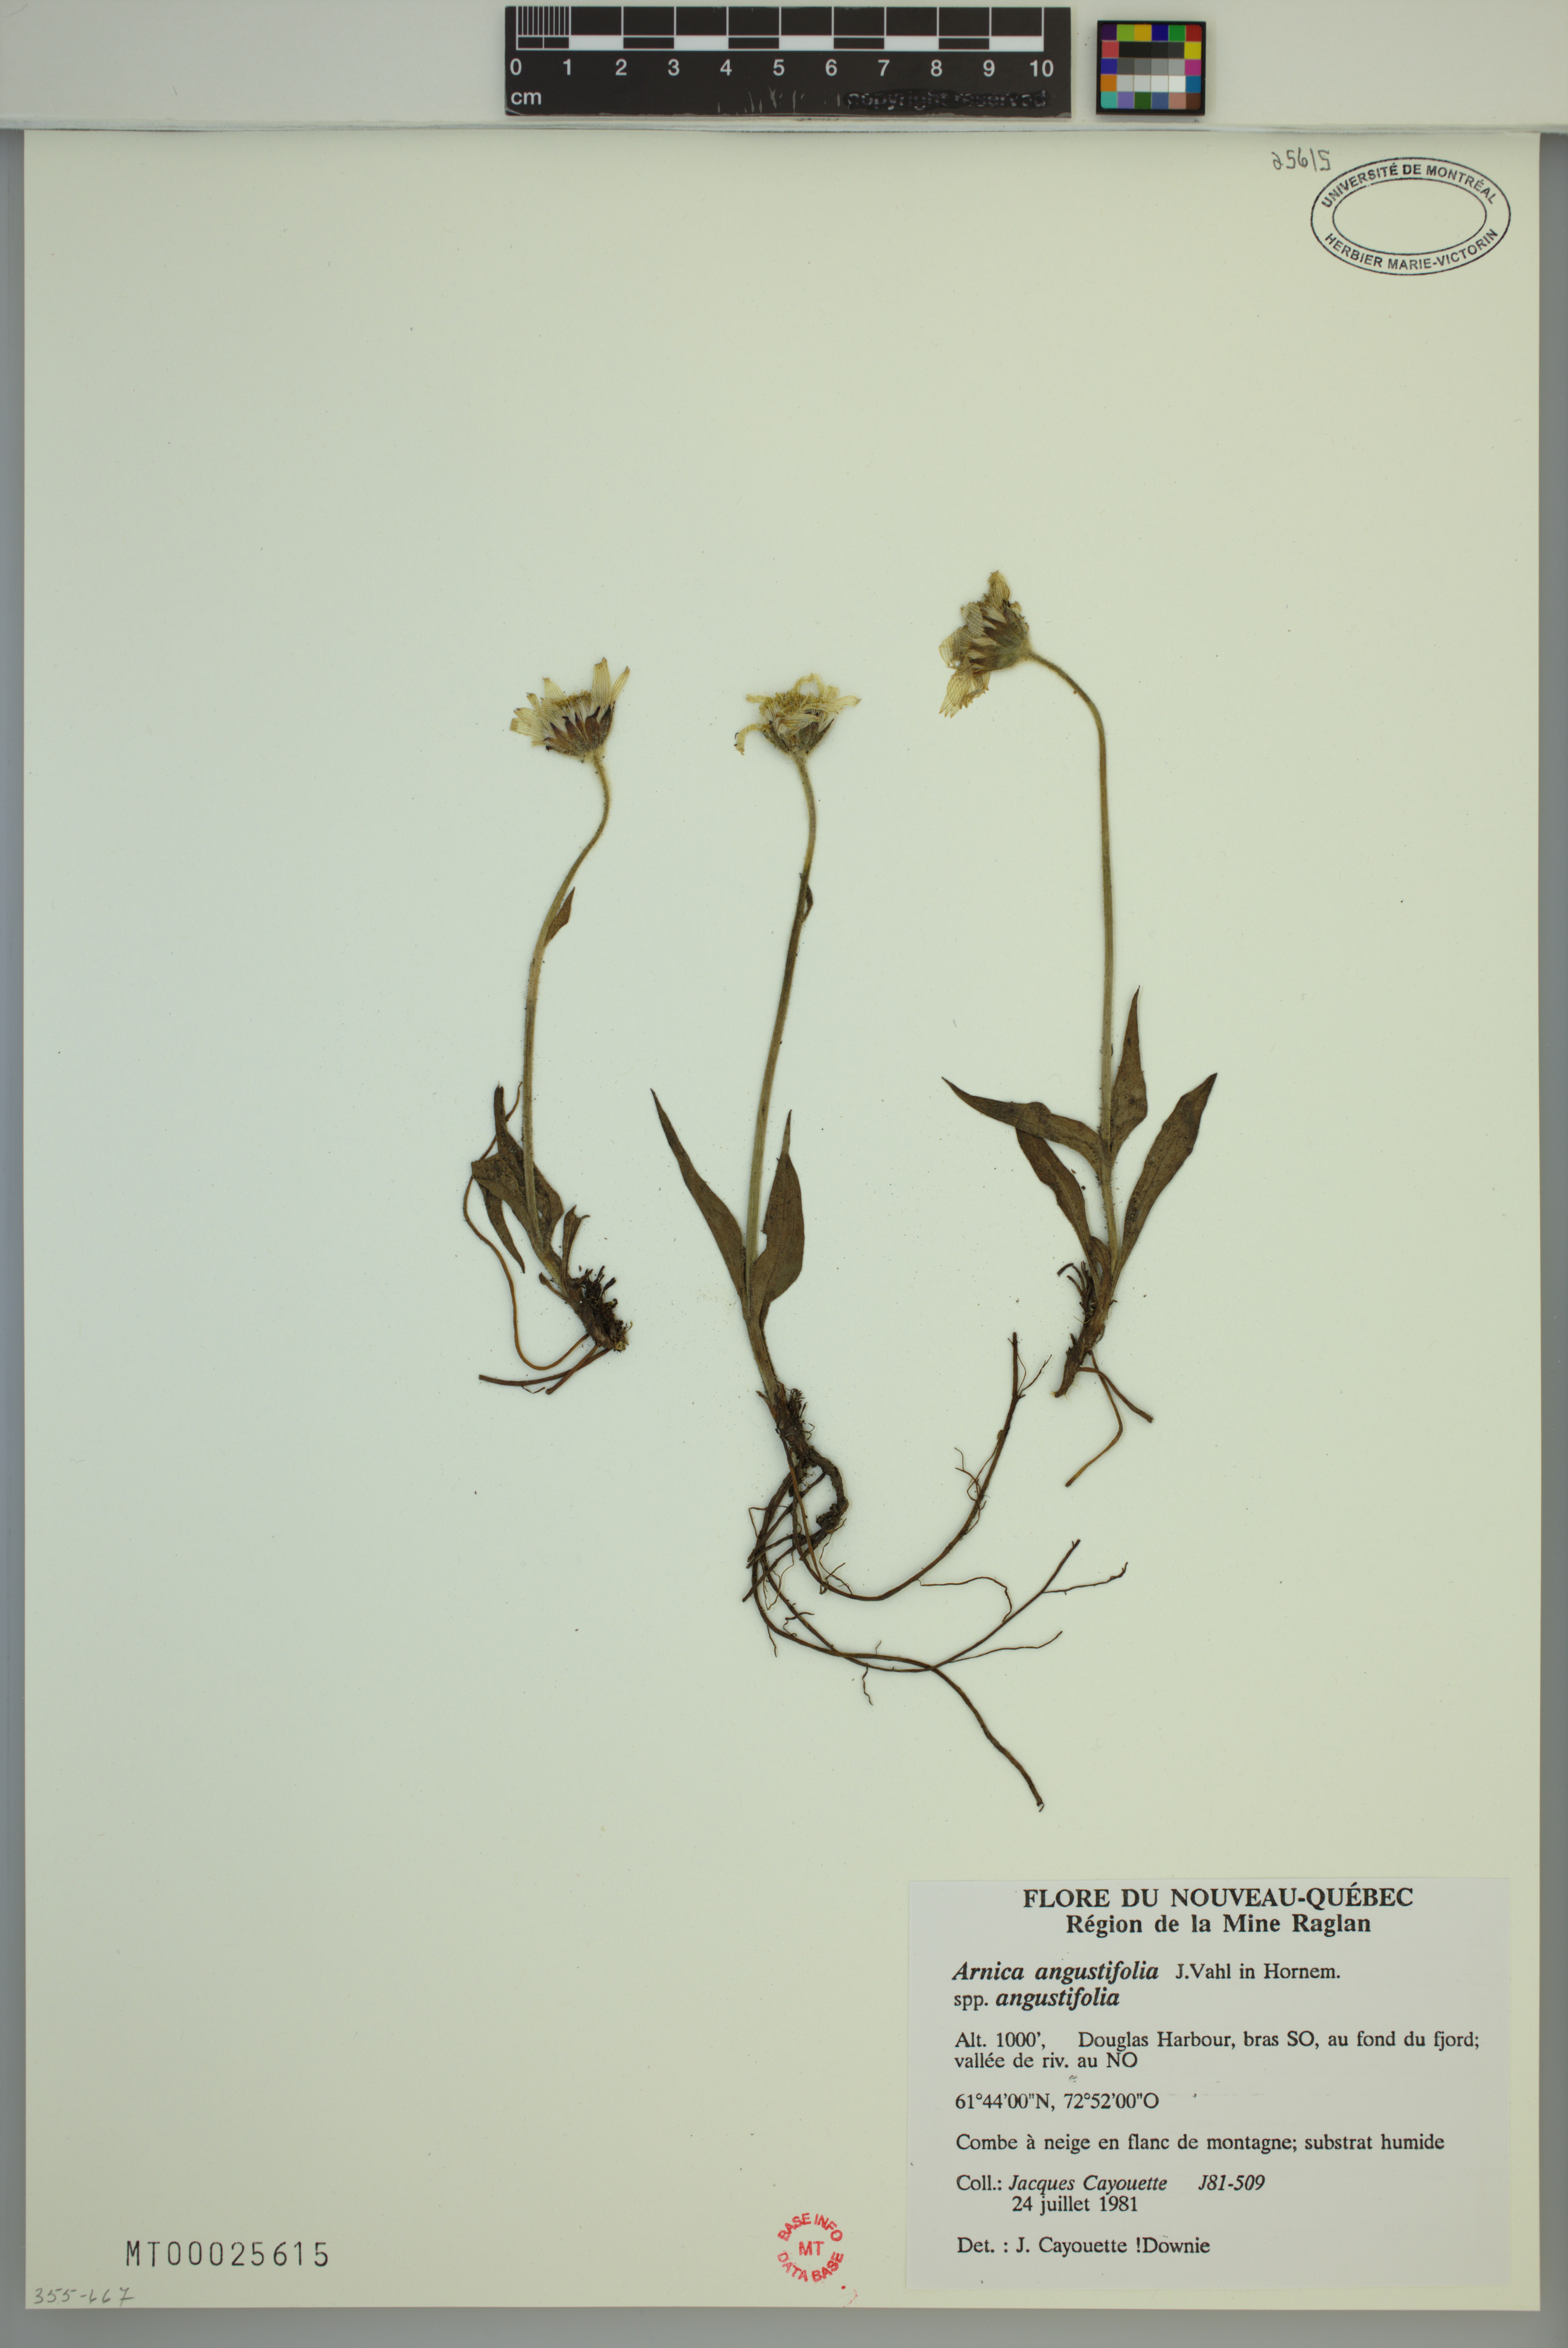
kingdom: Plantae
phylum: Tracheophyta
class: Magnoliopsida
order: Asterales
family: Asteraceae
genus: Arnica
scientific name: Arnica angustifolia
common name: Arctic arnica
